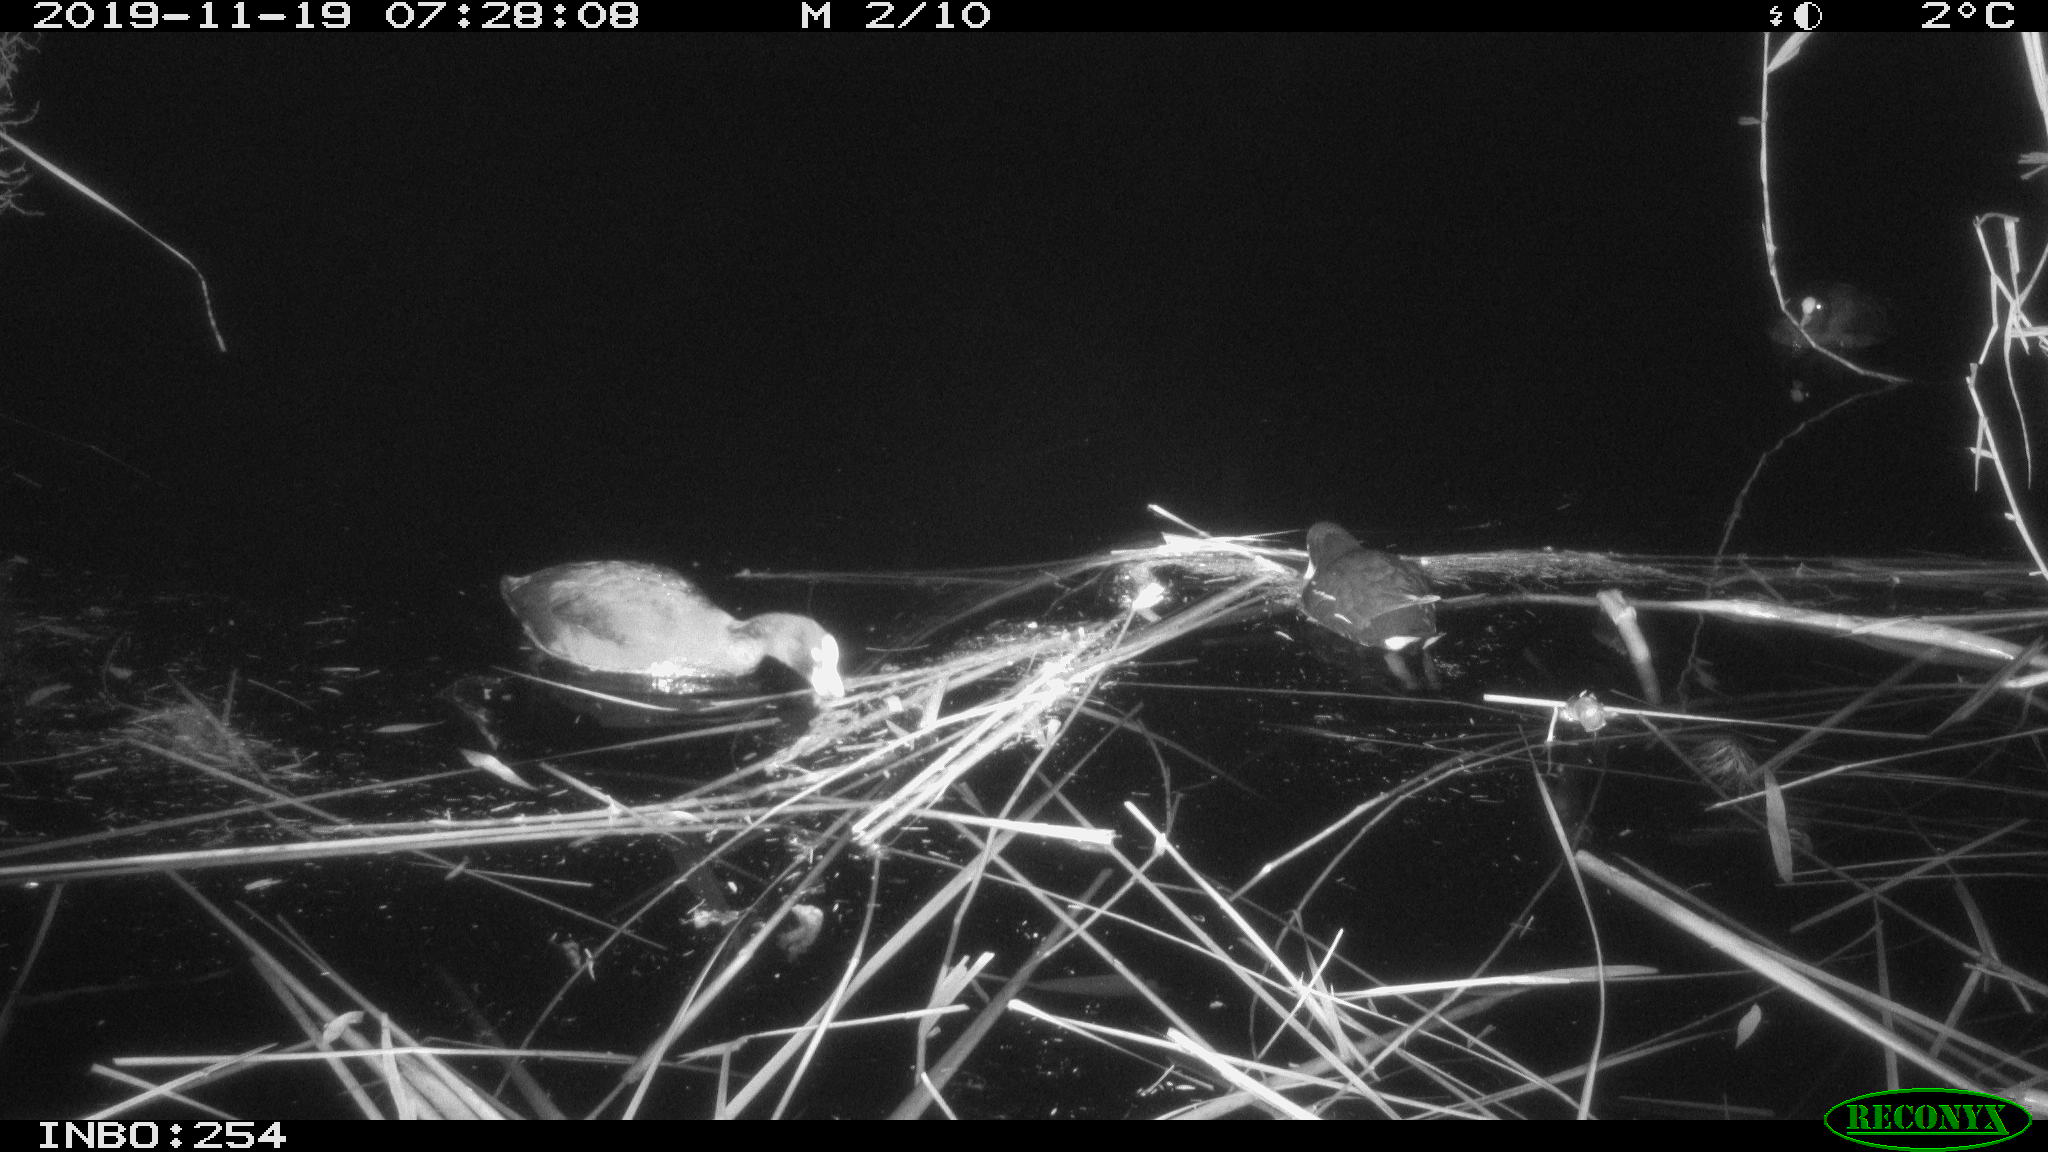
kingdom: Animalia
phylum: Chordata
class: Aves
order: Gruiformes
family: Rallidae
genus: Fulica
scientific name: Fulica atra
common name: Eurasian coot
